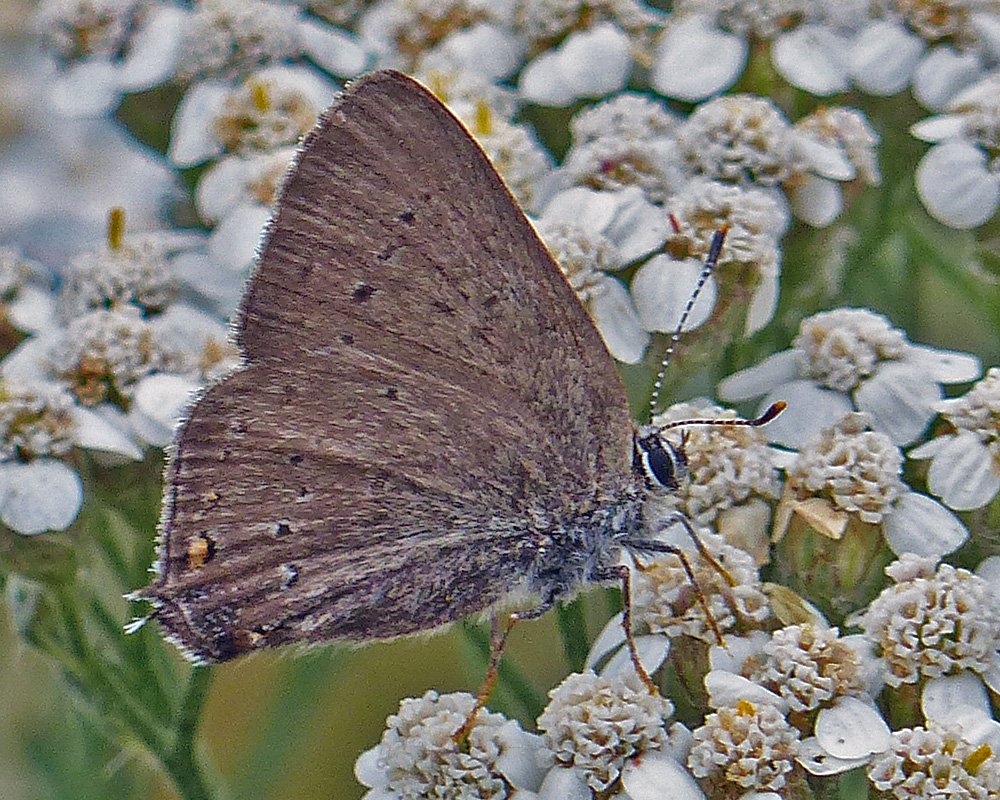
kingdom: Animalia
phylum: Arthropoda
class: Insecta
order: Lepidoptera
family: Lycaenidae
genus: Strymon
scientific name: Strymon sylvinus
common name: Sylvan Hairstreak
